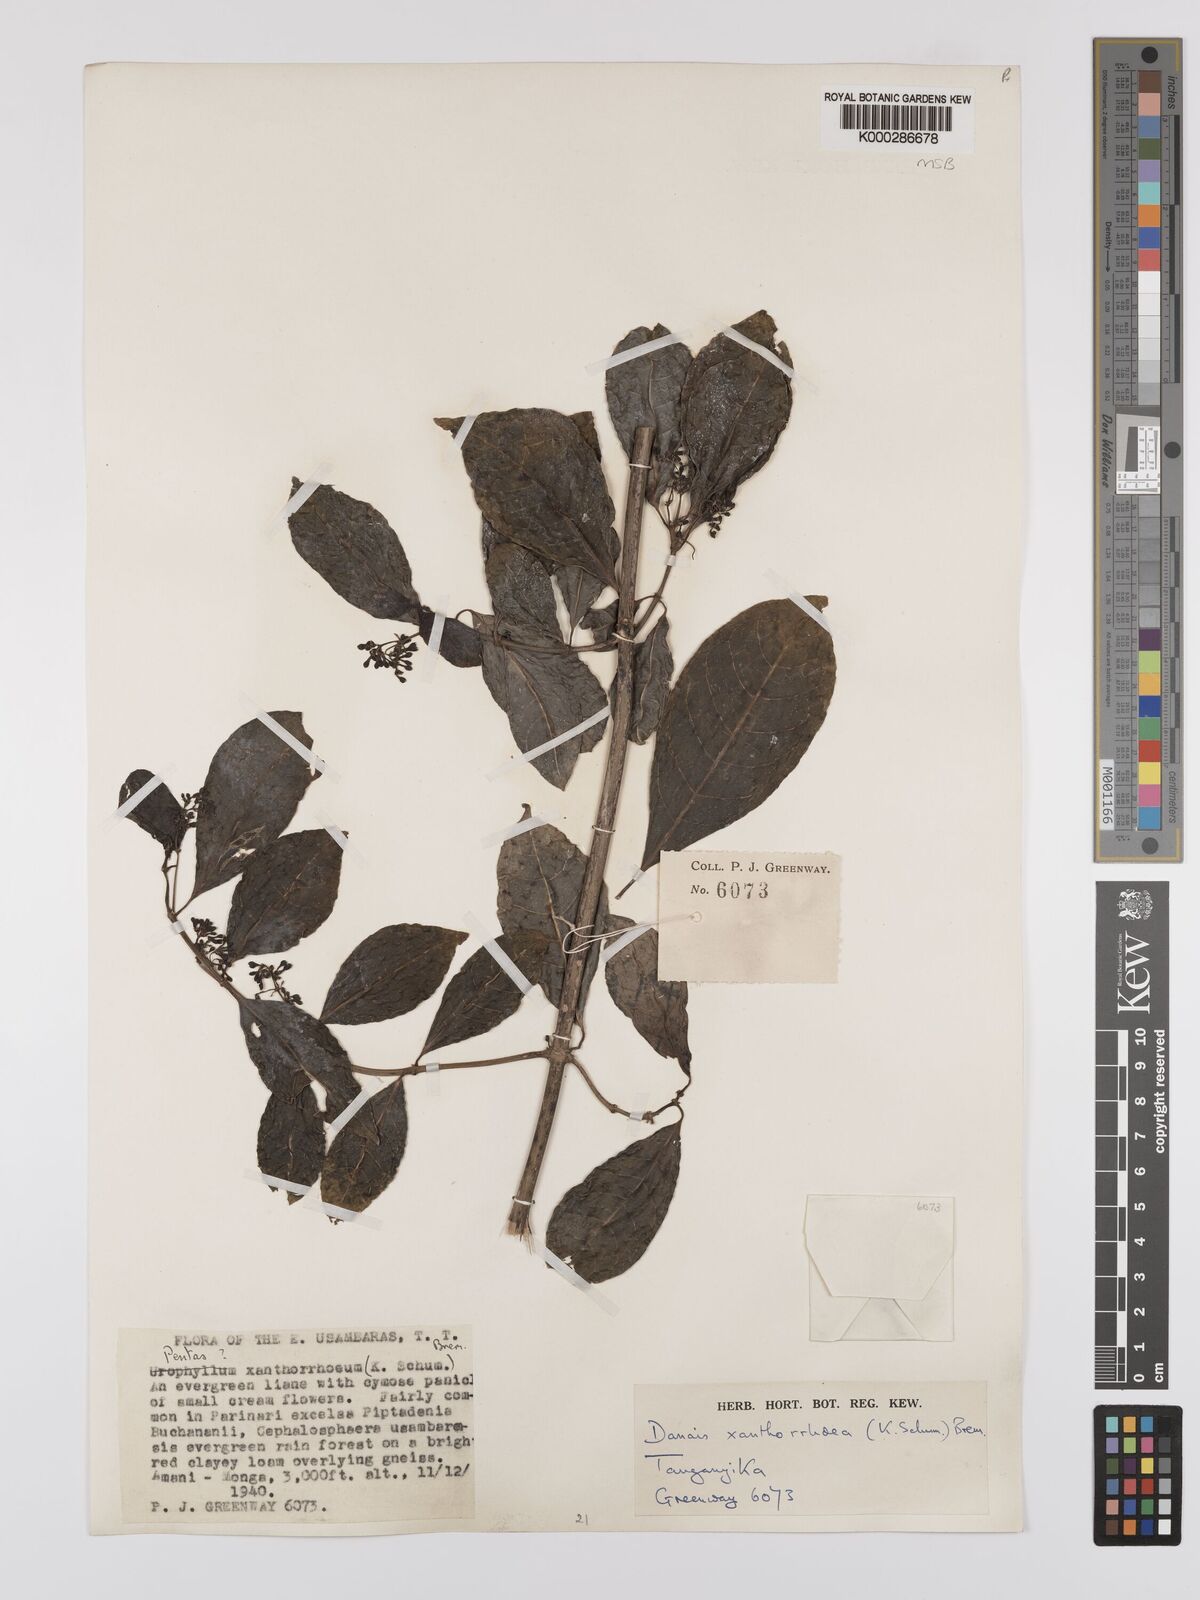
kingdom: Plantae
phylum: Tracheophyta
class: Magnoliopsida
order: Gentianales
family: Rubiaceae
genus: Danais
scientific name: Danais xanthorrhoea
